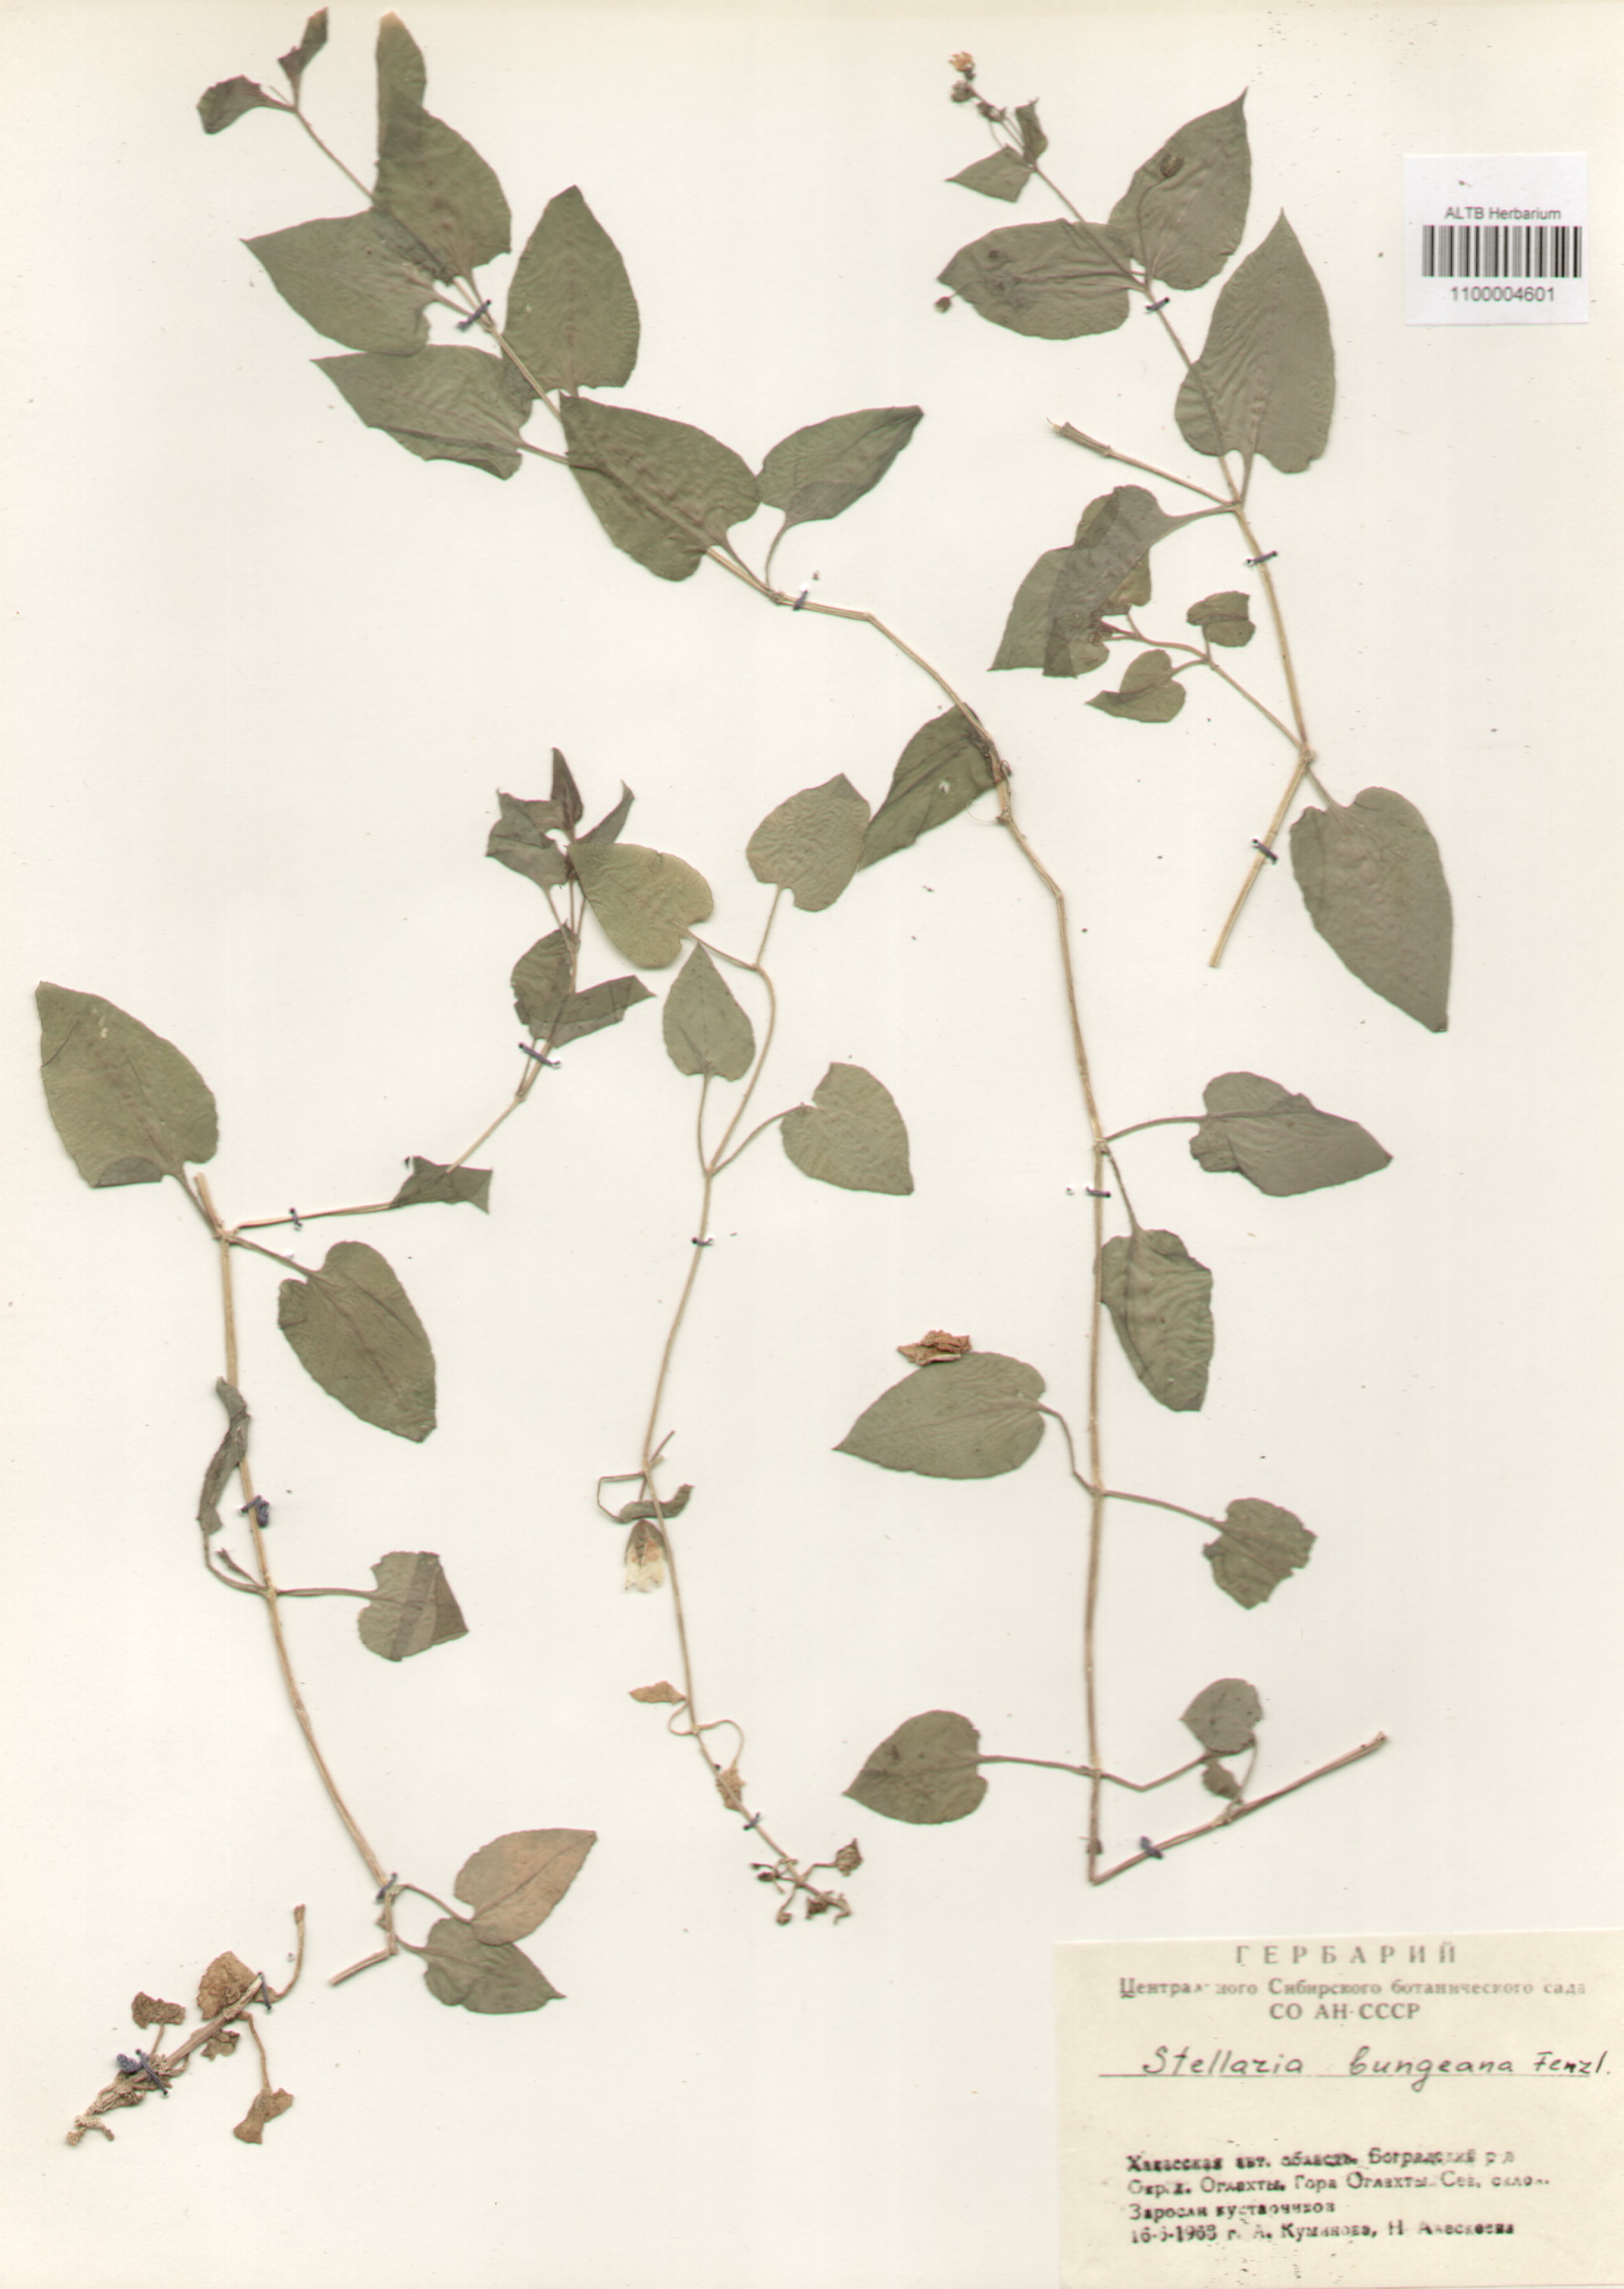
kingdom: Plantae
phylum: Tracheophyta
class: Magnoliopsida
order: Caryophyllales
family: Caryophyllaceae
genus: Stellaria
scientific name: Stellaria bungeana
